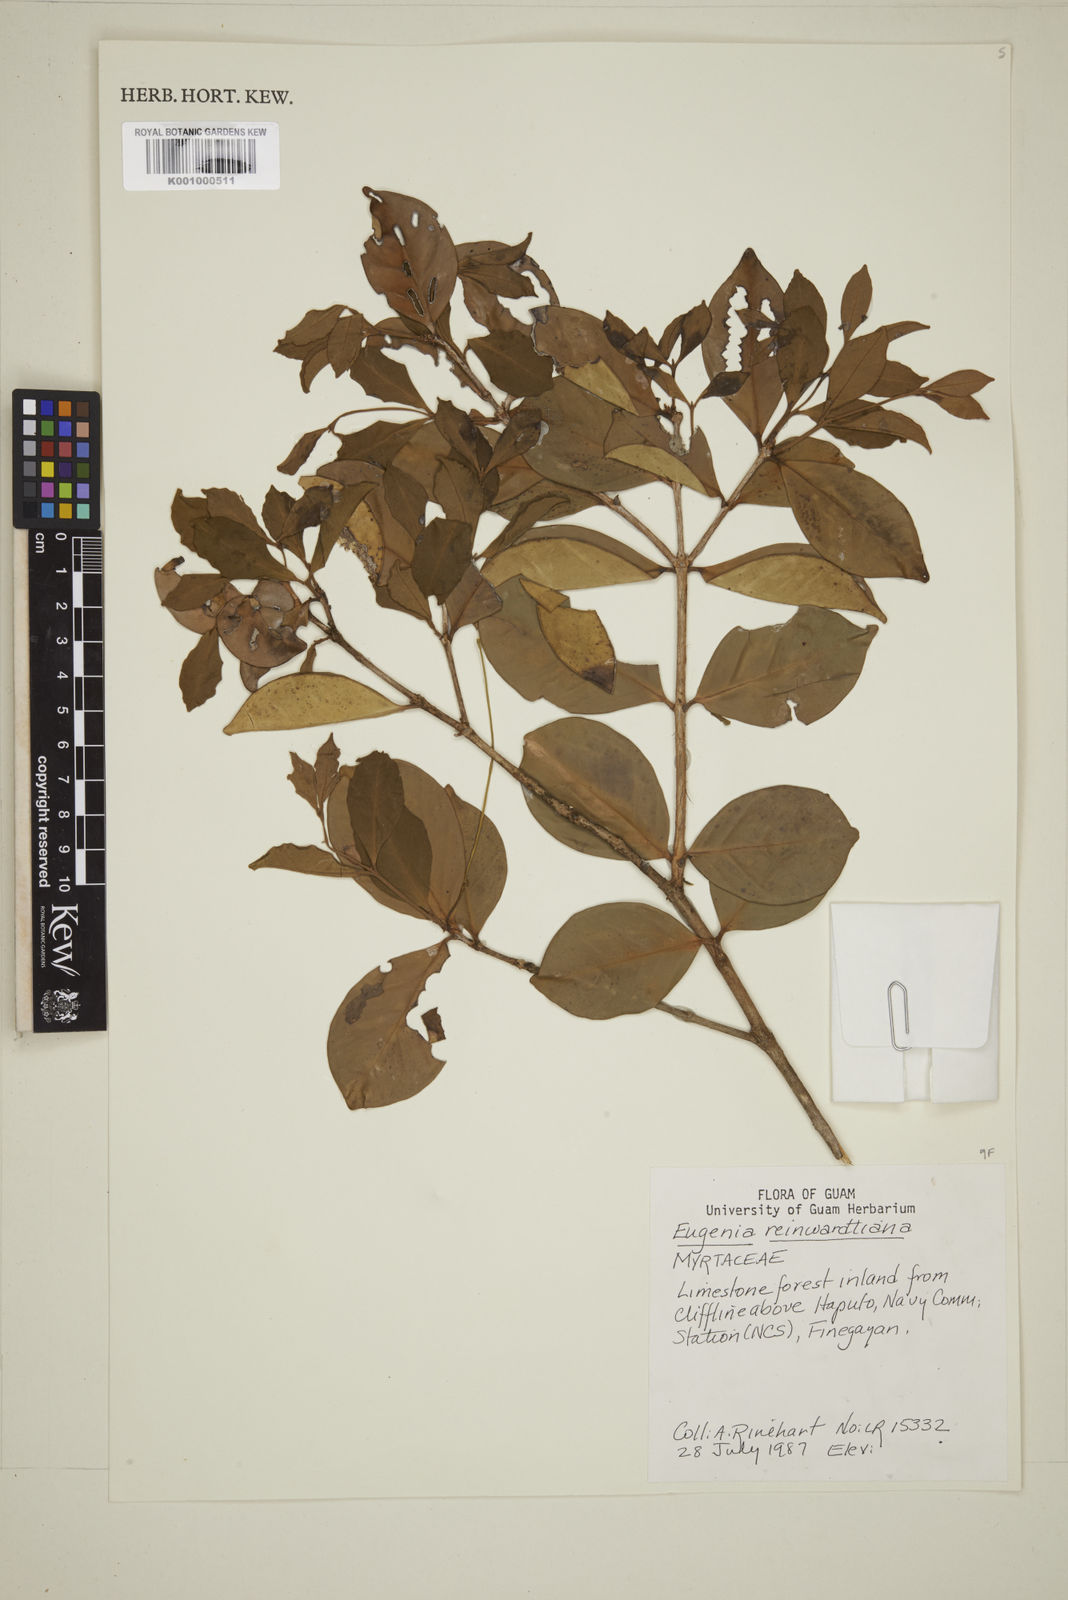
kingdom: Plantae
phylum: Tracheophyta
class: Magnoliopsida
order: Myrtales
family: Myrtaceae
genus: Eugenia
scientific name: Eugenia reinwardtiana
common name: Cedar bay-cherry
